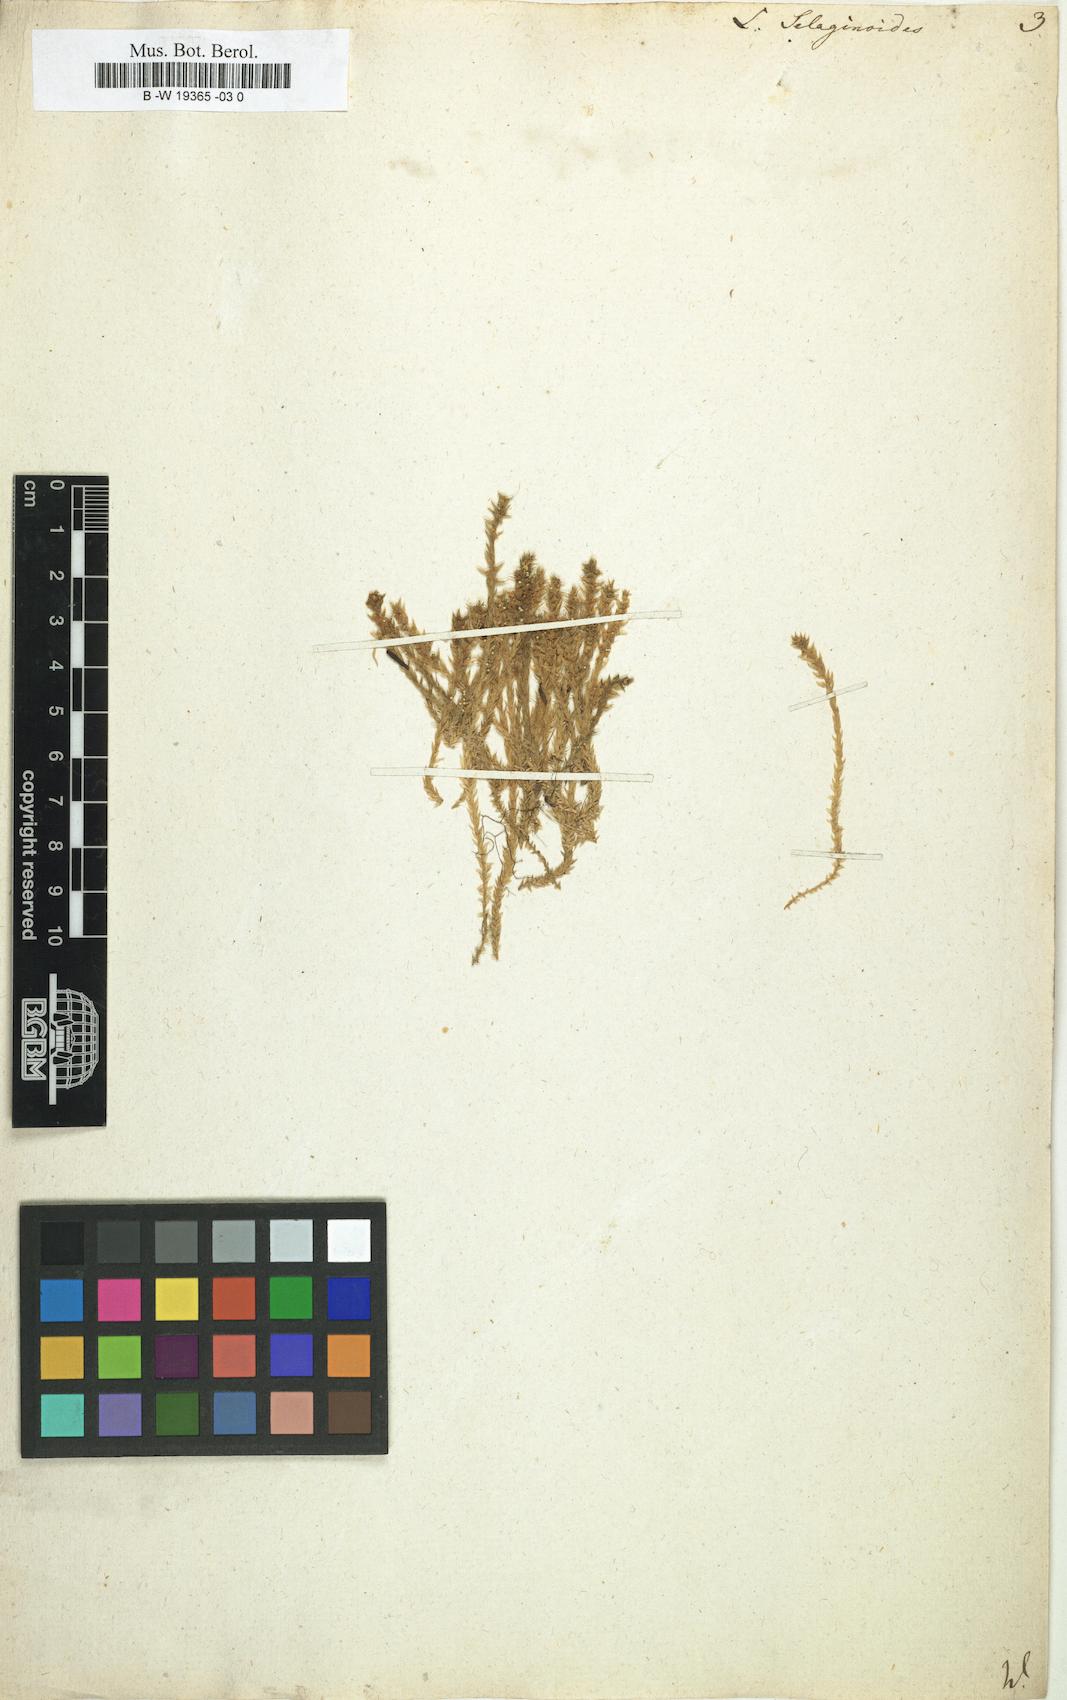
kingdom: Plantae
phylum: Tracheophyta
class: Lycopodiopsida
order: Selaginellales
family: Selaginellaceae
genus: Selaginella
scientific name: Selaginella selaginoides
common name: Prickly mountain-moss
